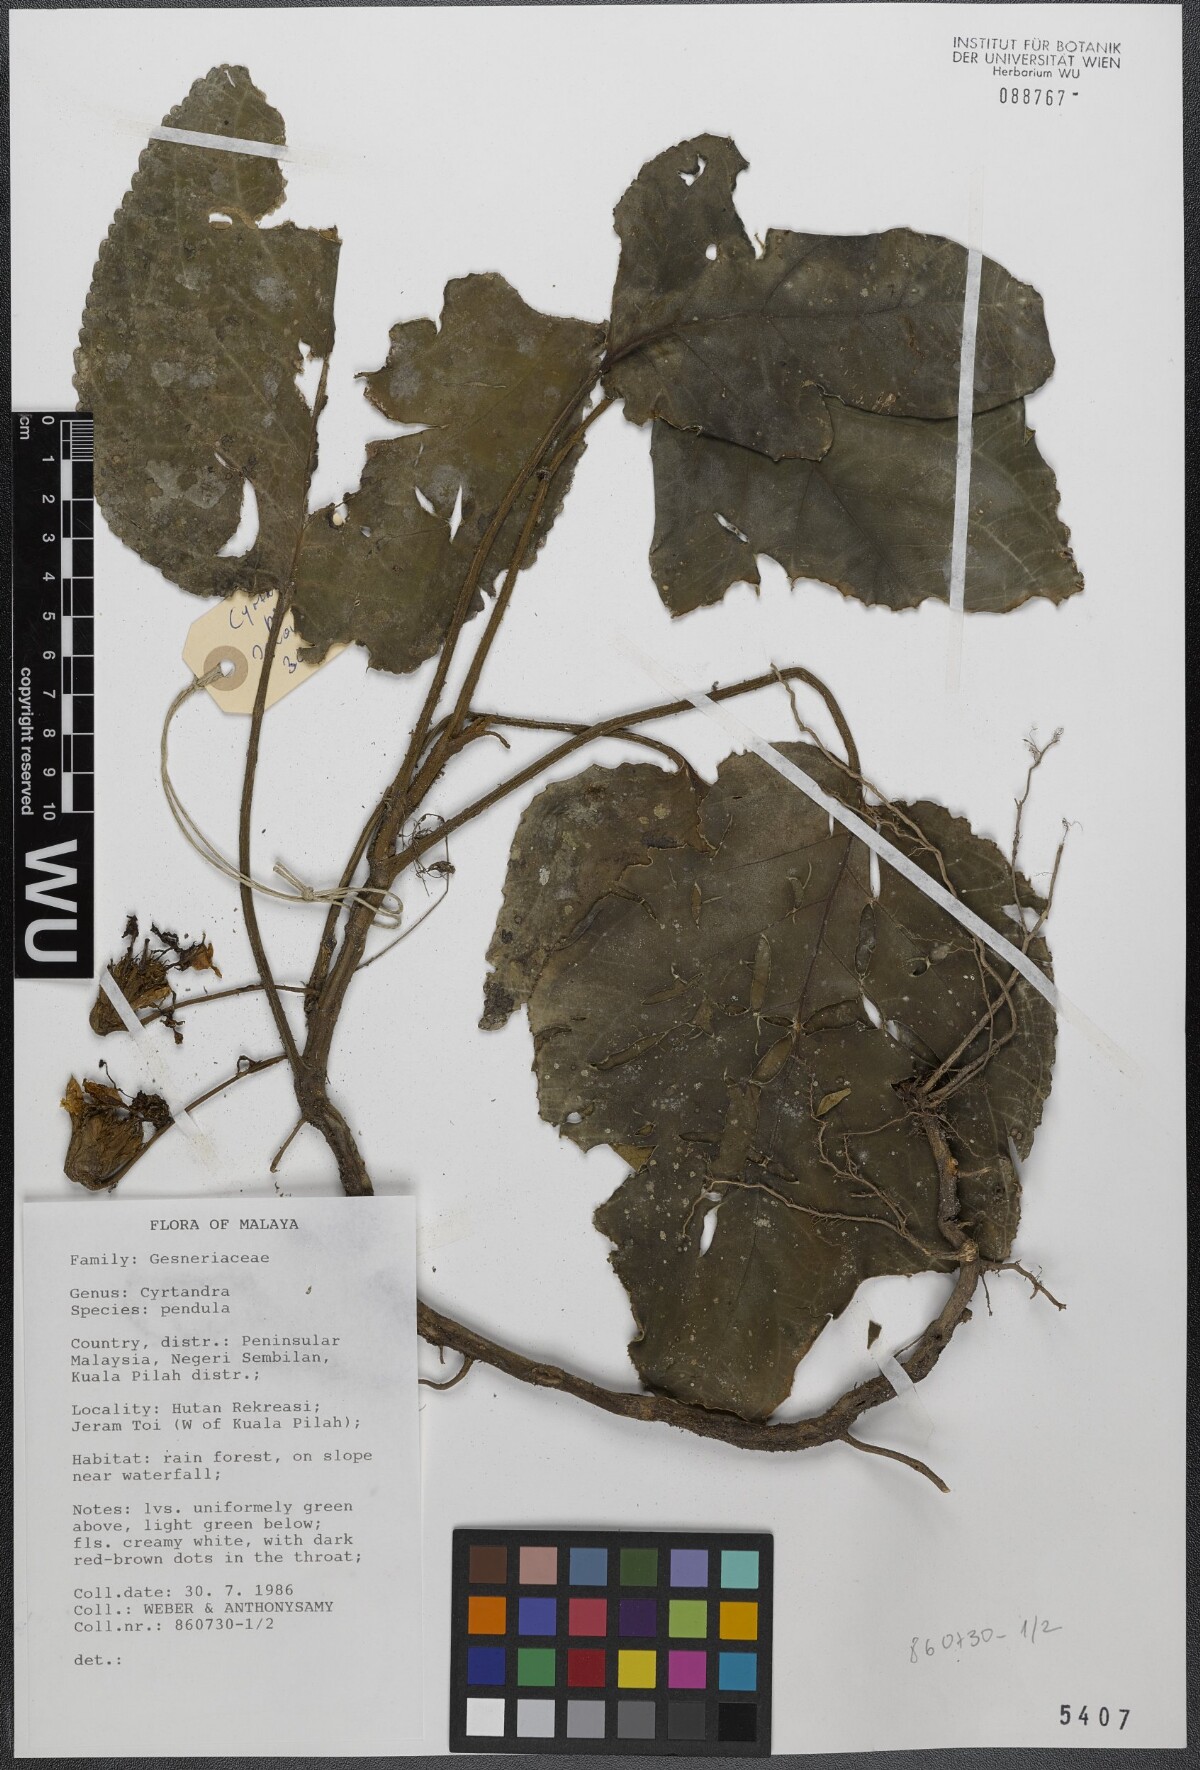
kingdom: Plantae
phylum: Tracheophyta
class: Magnoliopsida
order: Lamiales
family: Gesneriaceae
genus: Cyrtandra
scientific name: Cyrtandra pendula
